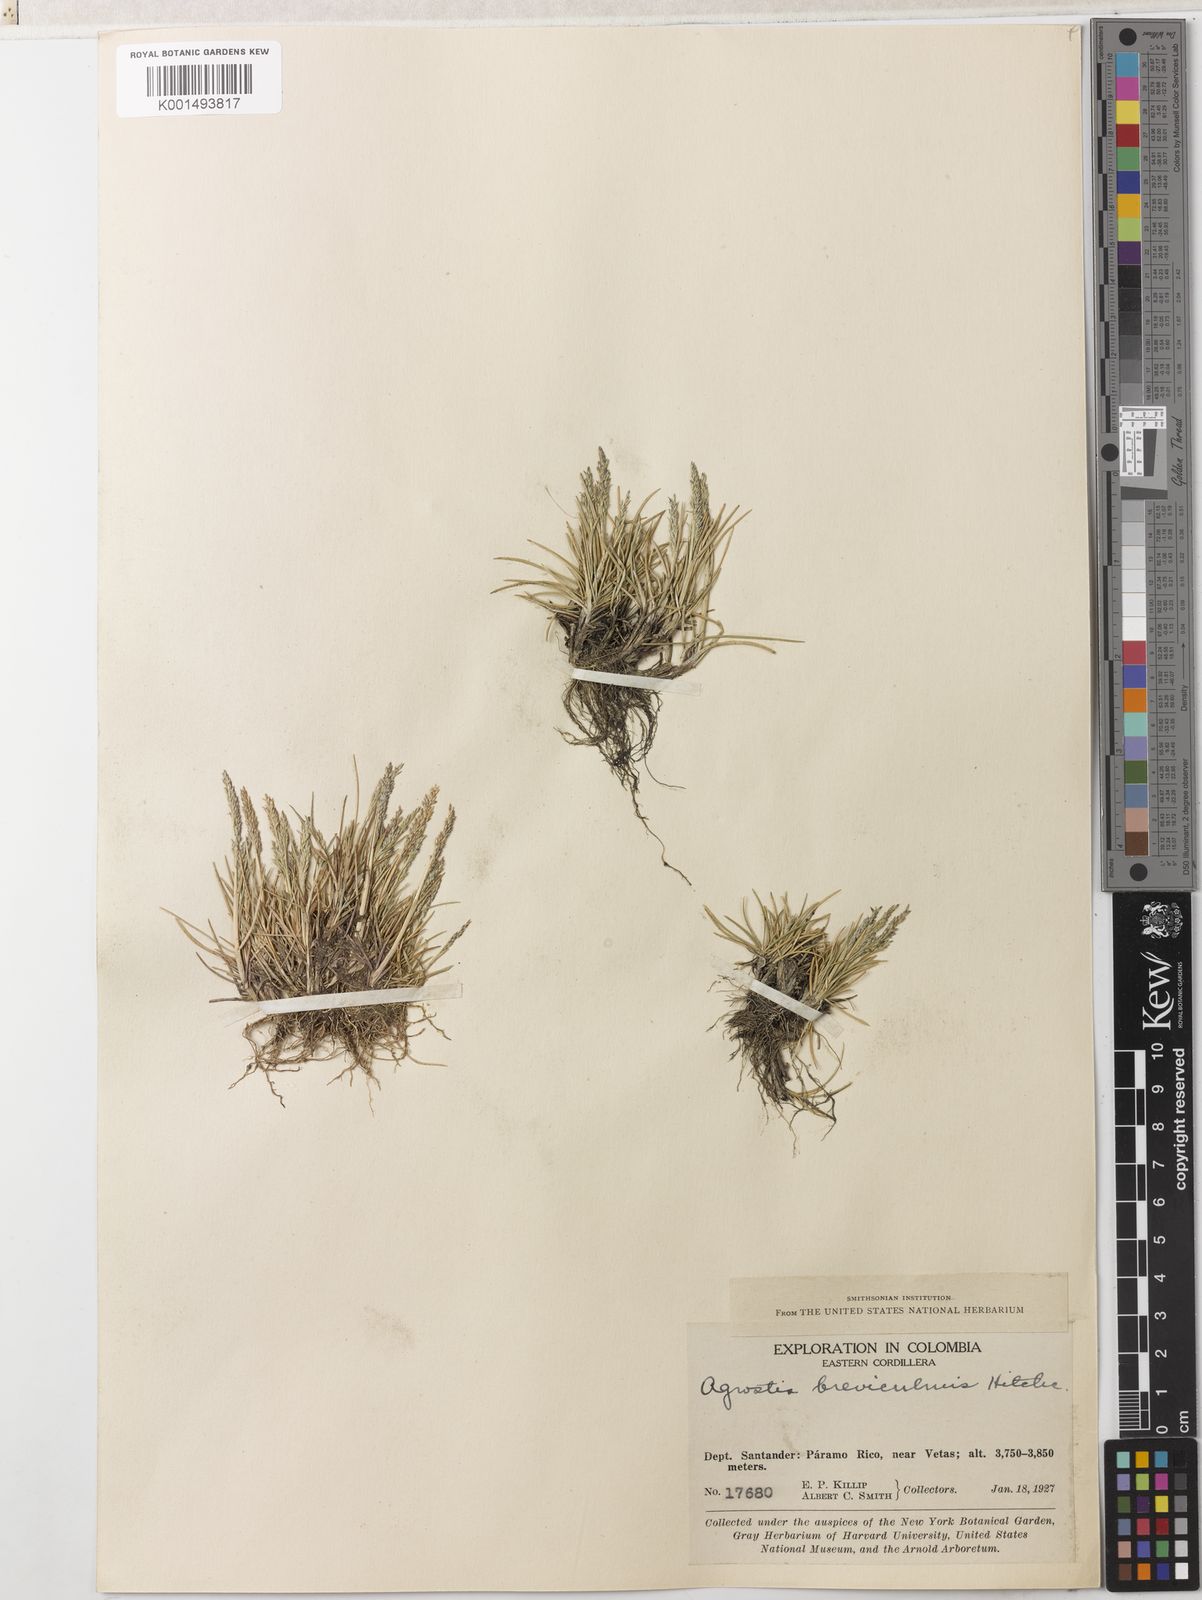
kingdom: Plantae
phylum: Tracheophyta
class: Liliopsida
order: Poales
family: Poaceae
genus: Agrostis
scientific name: Agrostis breviculmis
